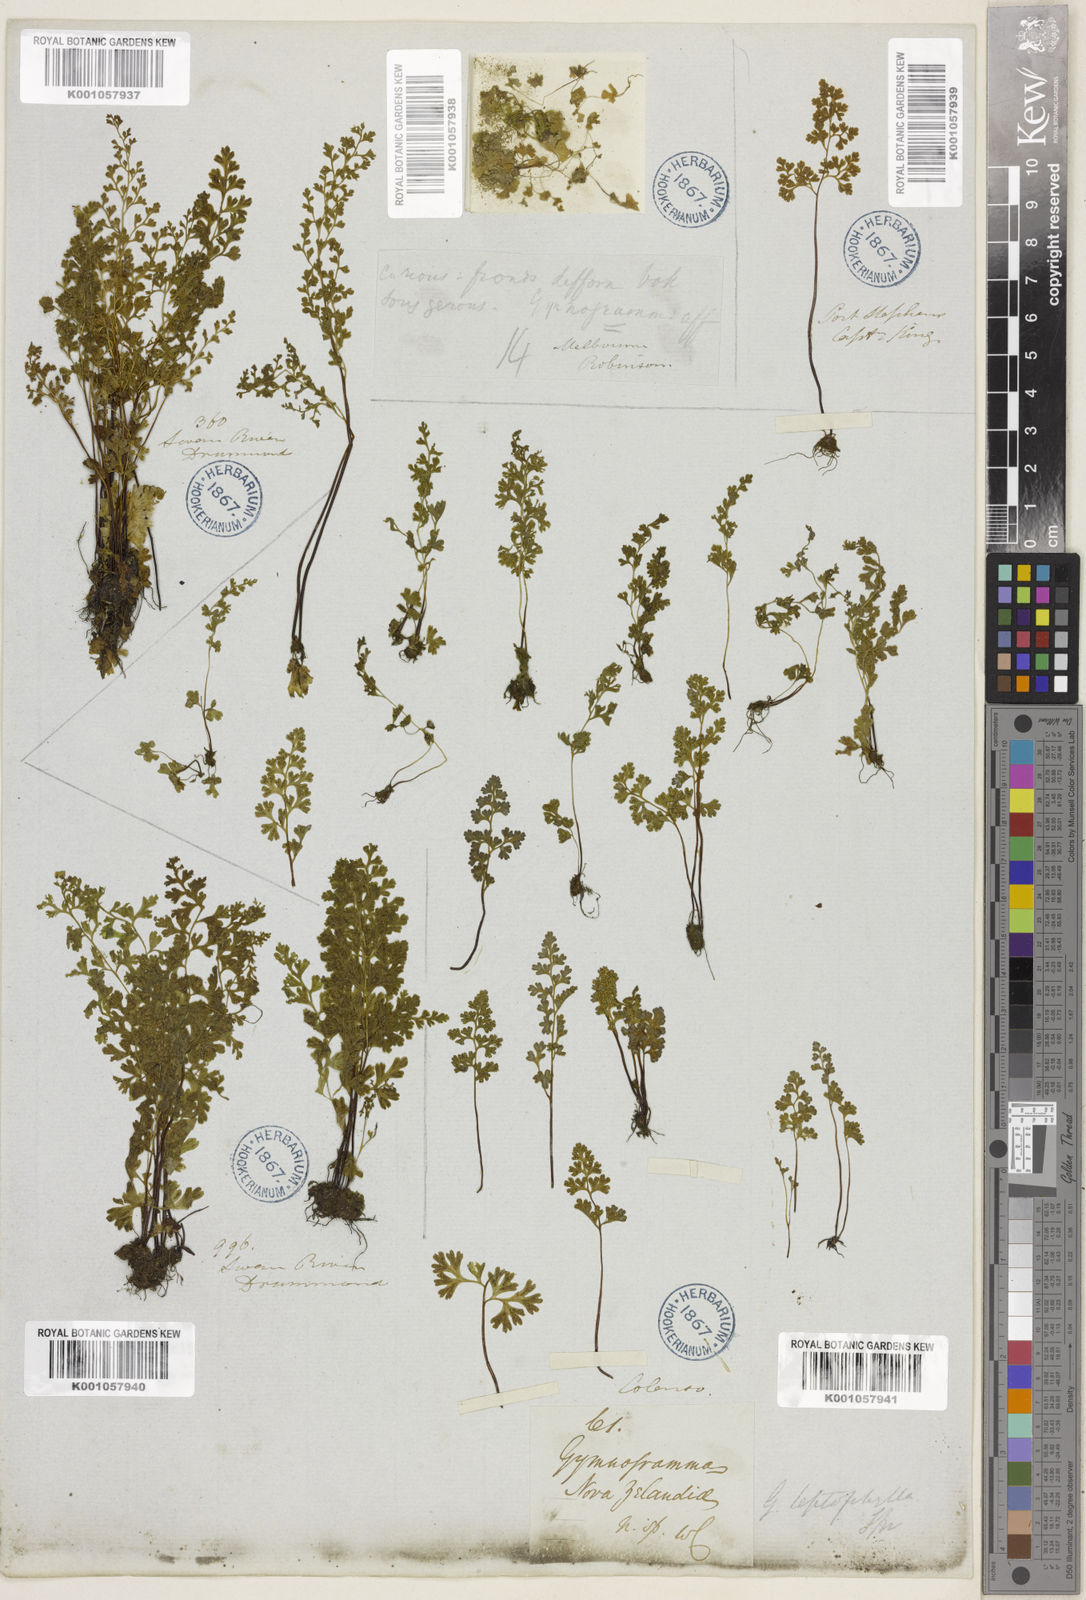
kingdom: Plantae
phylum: Tracheophyta
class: Polypodiopsida
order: Polypodiales
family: Pteridaceae
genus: Anogramma
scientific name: Anogramma leptophylla
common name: Jersey fern
